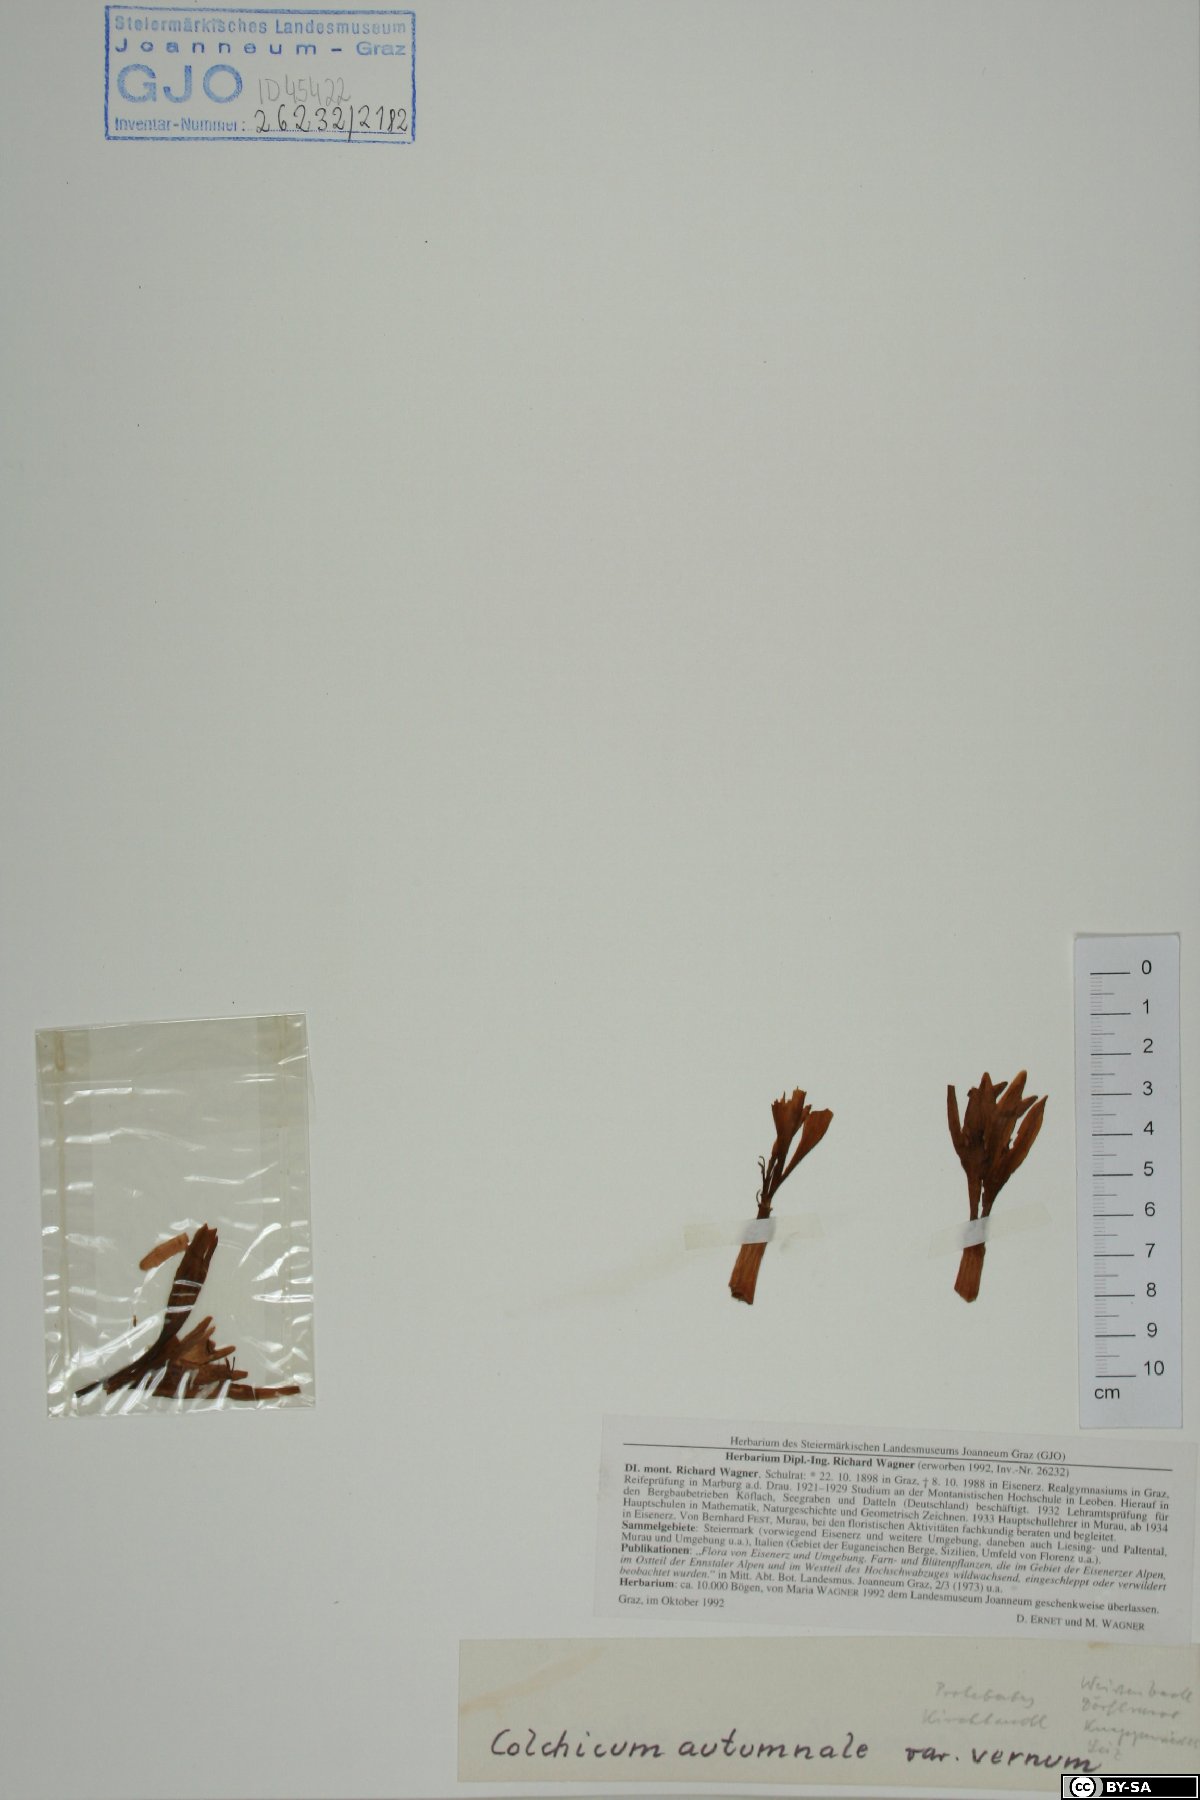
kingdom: Plantae
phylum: Tracheophyta
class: Liliopsida
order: Liliales
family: Colchicaceae
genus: Colchicum
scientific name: Colchicum autumnale
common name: Autumn crocus
